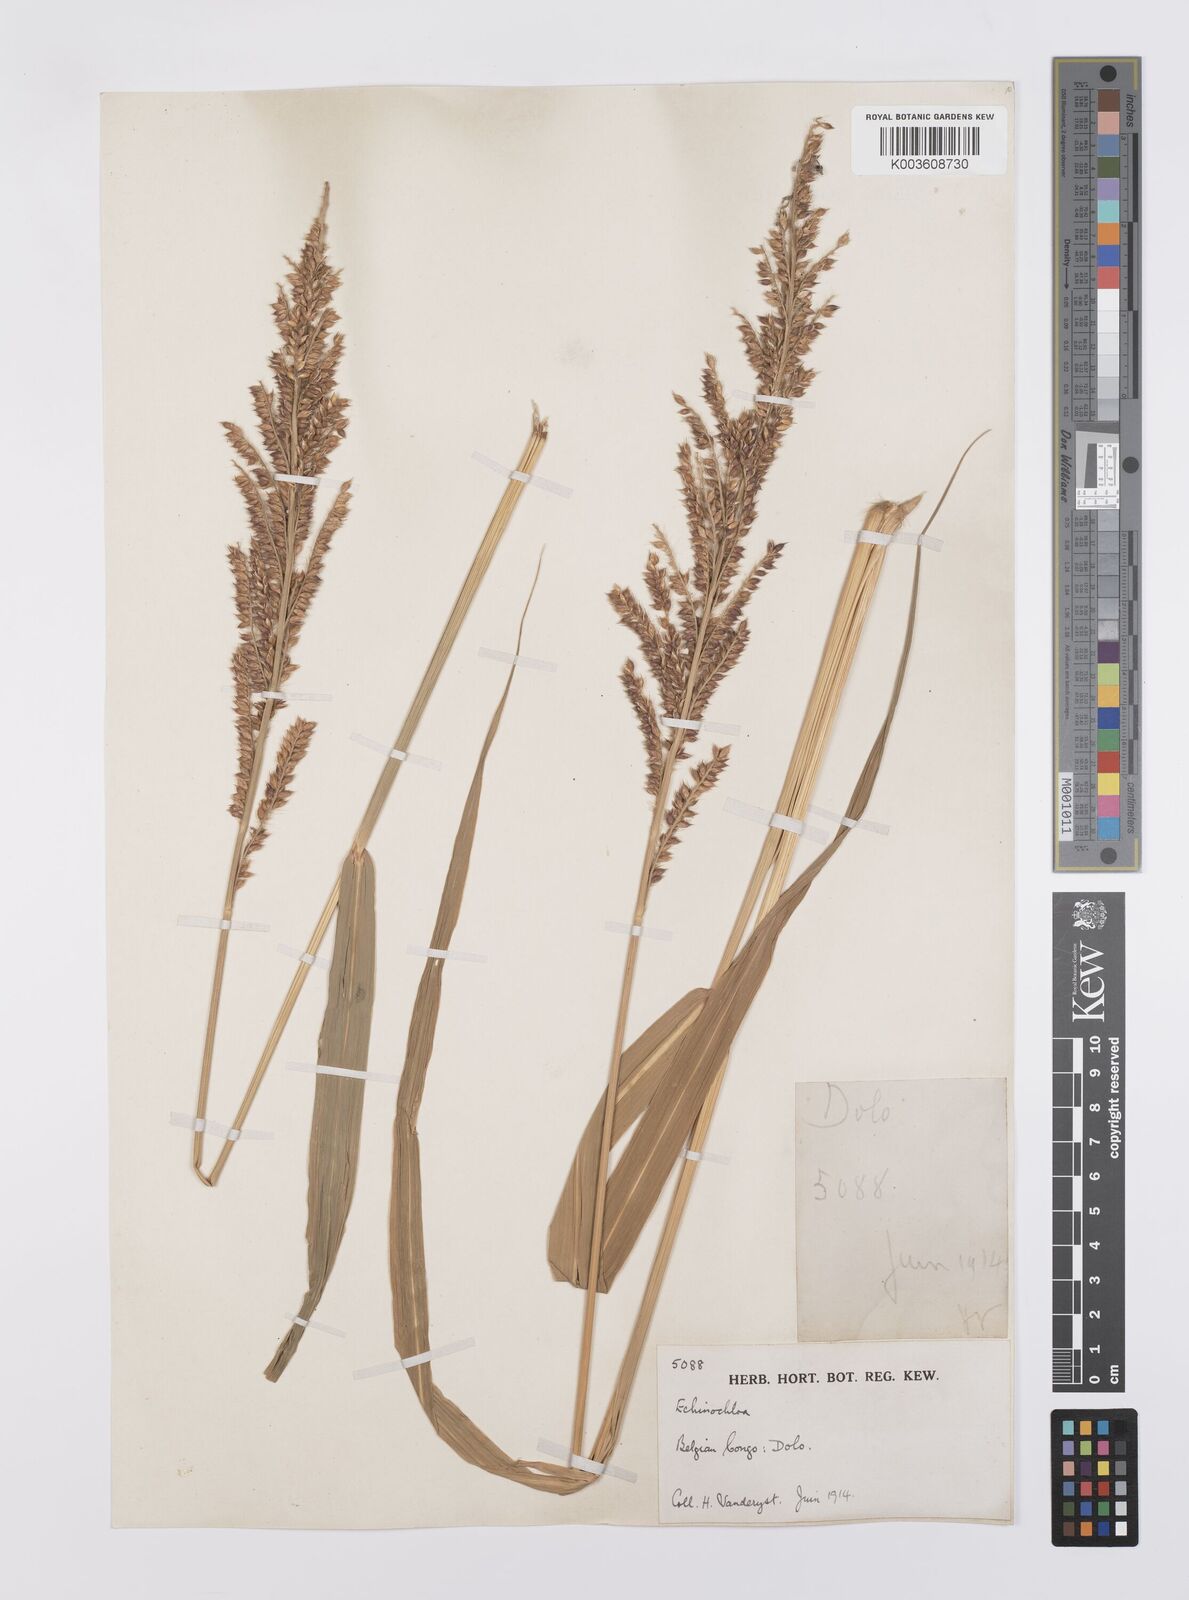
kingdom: Plantae
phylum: Tracheophyta
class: Liliopsida
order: Poales
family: Poaceae
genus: Echinochloa
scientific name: Echinochloa pyramidalis
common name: Antelope grass
